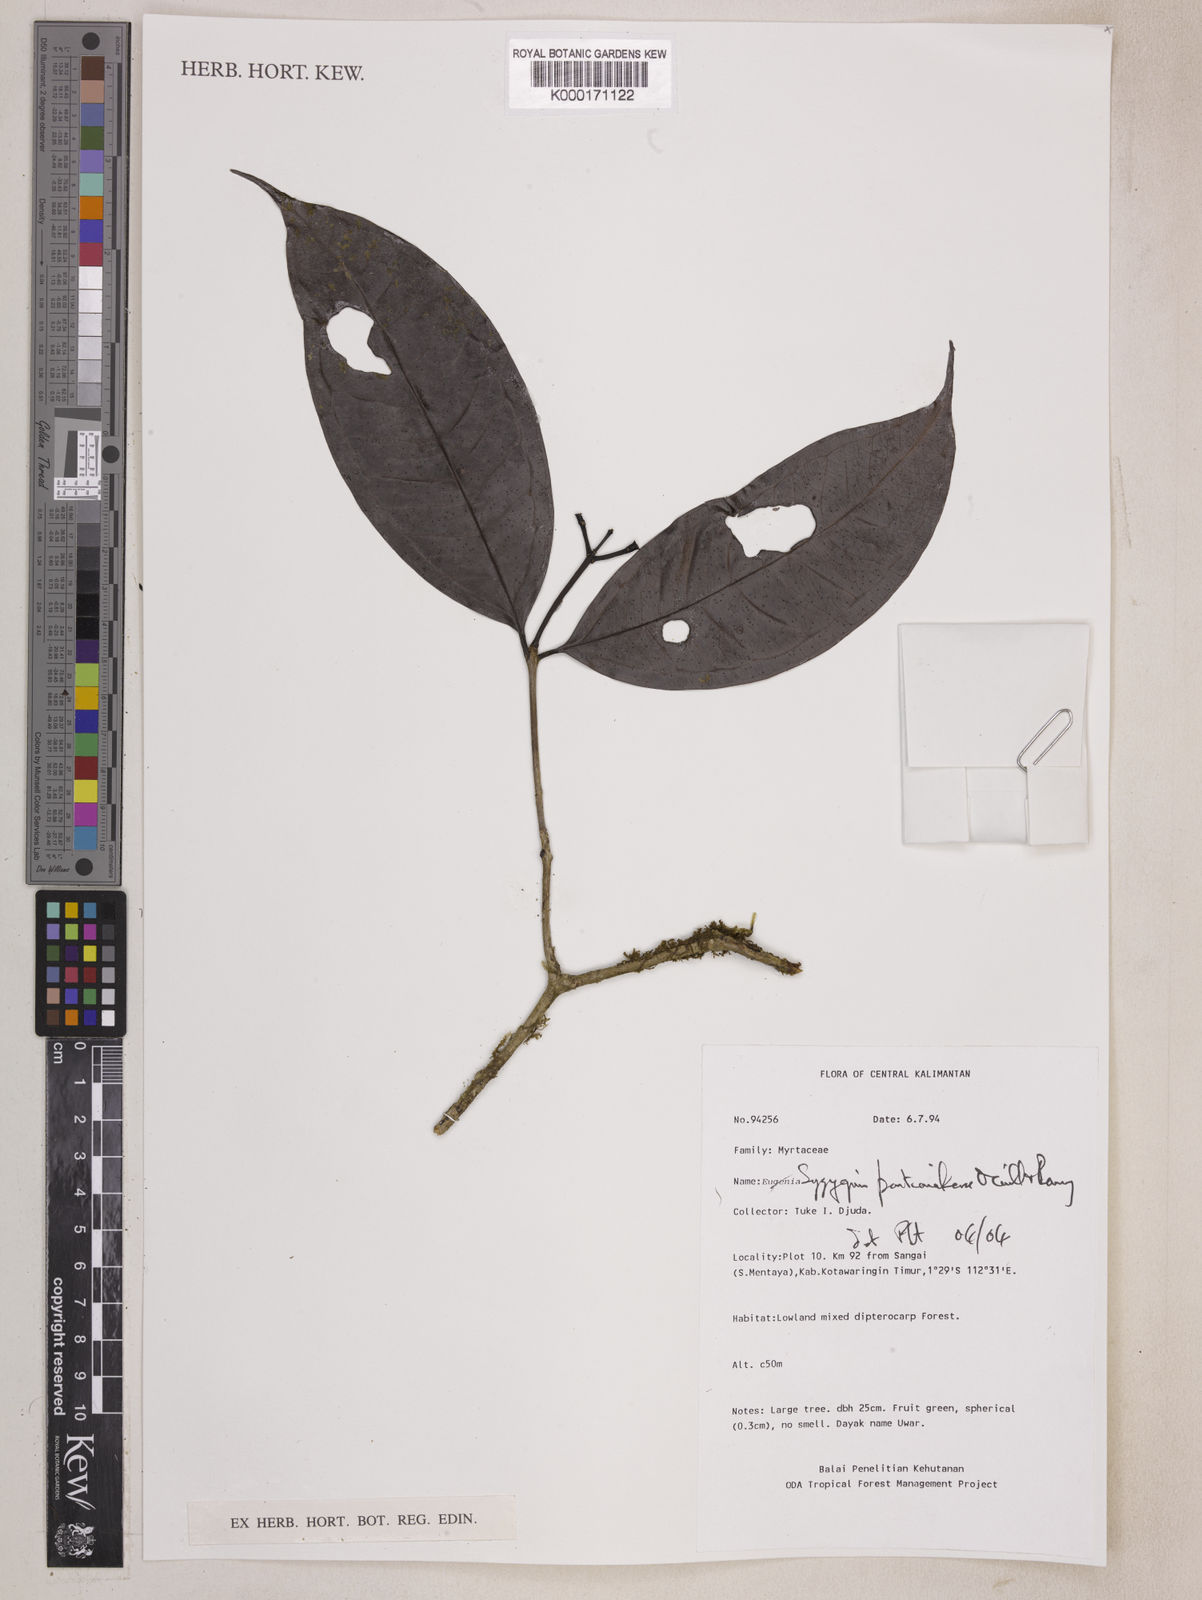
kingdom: Plantae
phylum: Tracheophyta
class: Magnoliopsida
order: Myrtales
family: Myrtaceae
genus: Syzygium
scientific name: Syzygium pontianakense
